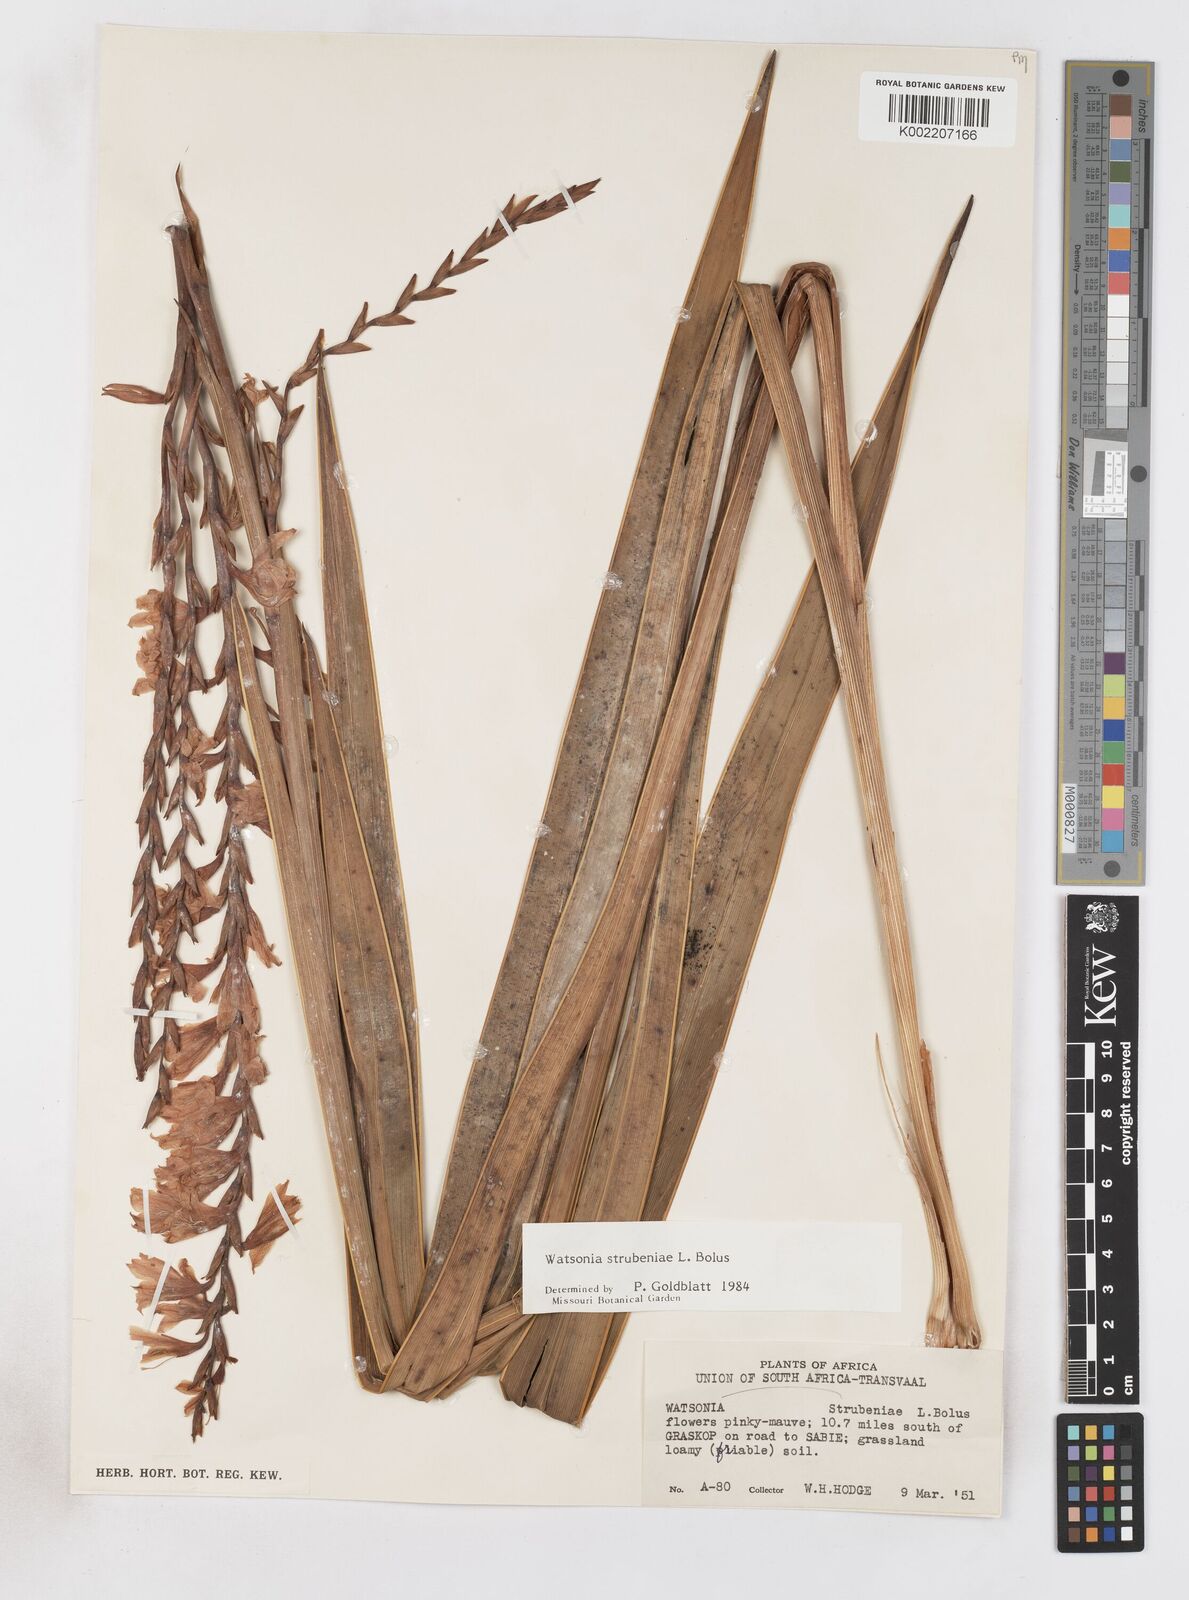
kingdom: Plantae
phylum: Tracheophyta
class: Liliopsida
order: Asparagales
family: Iridaceae
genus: Watsonia
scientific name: Watsonia strubeniae
